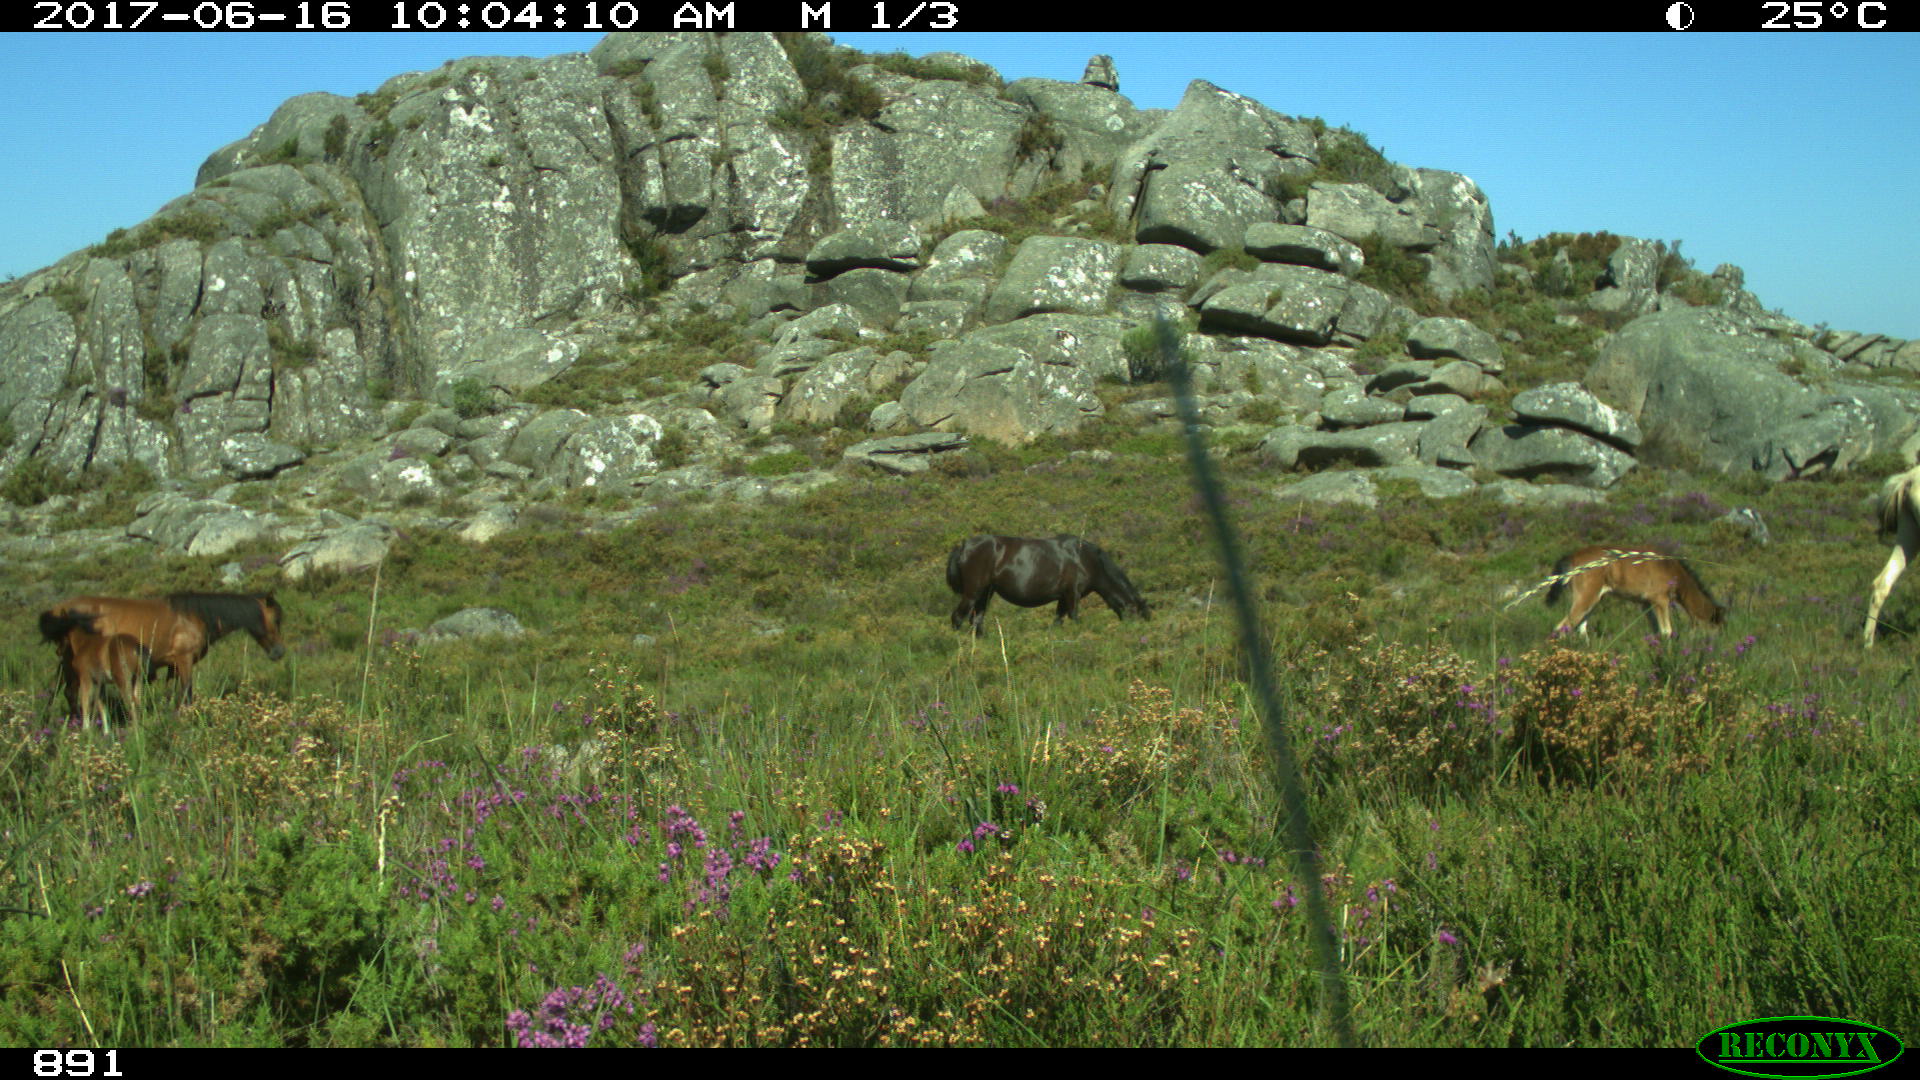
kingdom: Animalia
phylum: Chordata
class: Mammalia
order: Perissodactyla
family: Equidae
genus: Equus
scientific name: Equus caballus
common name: Horse
